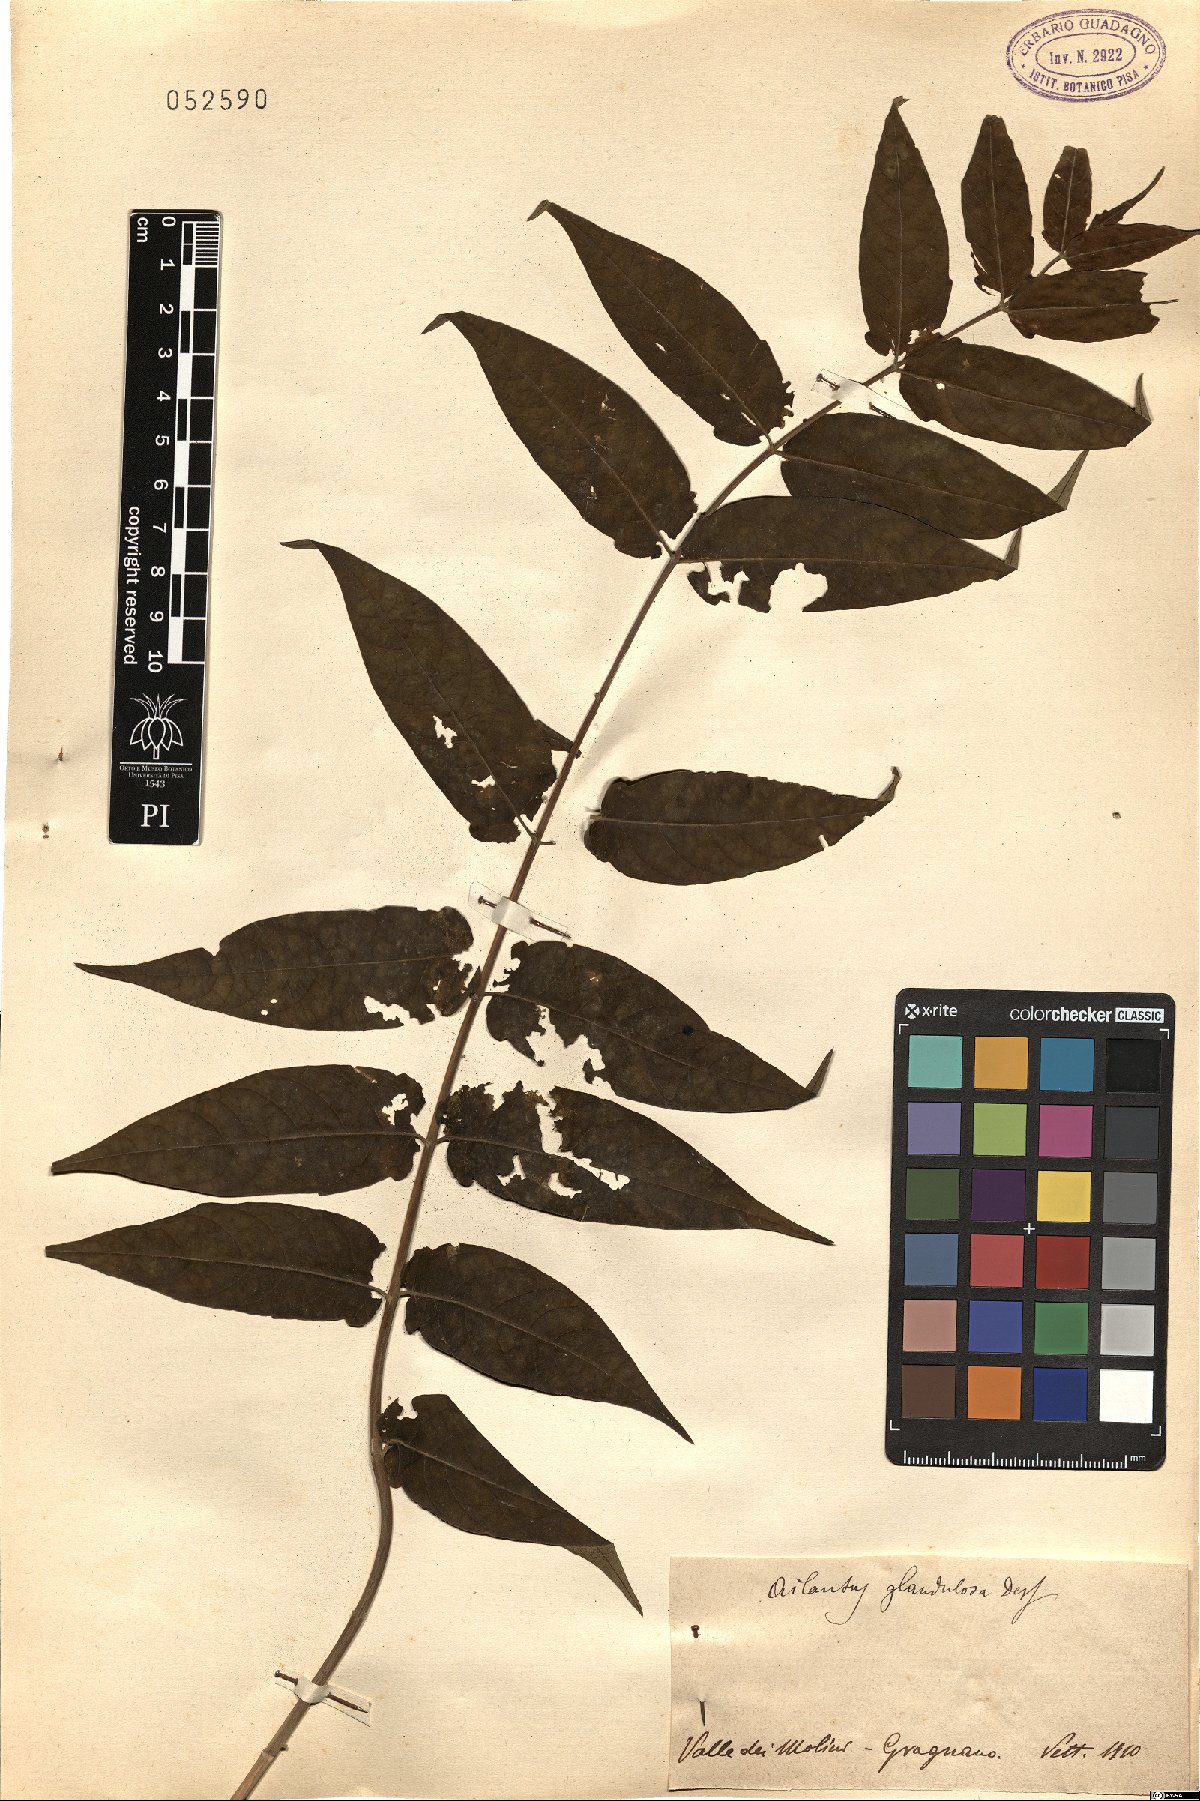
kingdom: Plantae
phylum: Tracheophyta
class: Magnoliopsida
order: Sapindales
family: Simaroubaceae
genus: Ailanthus
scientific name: Ailanthus altissima
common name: Tree-of-heaven
